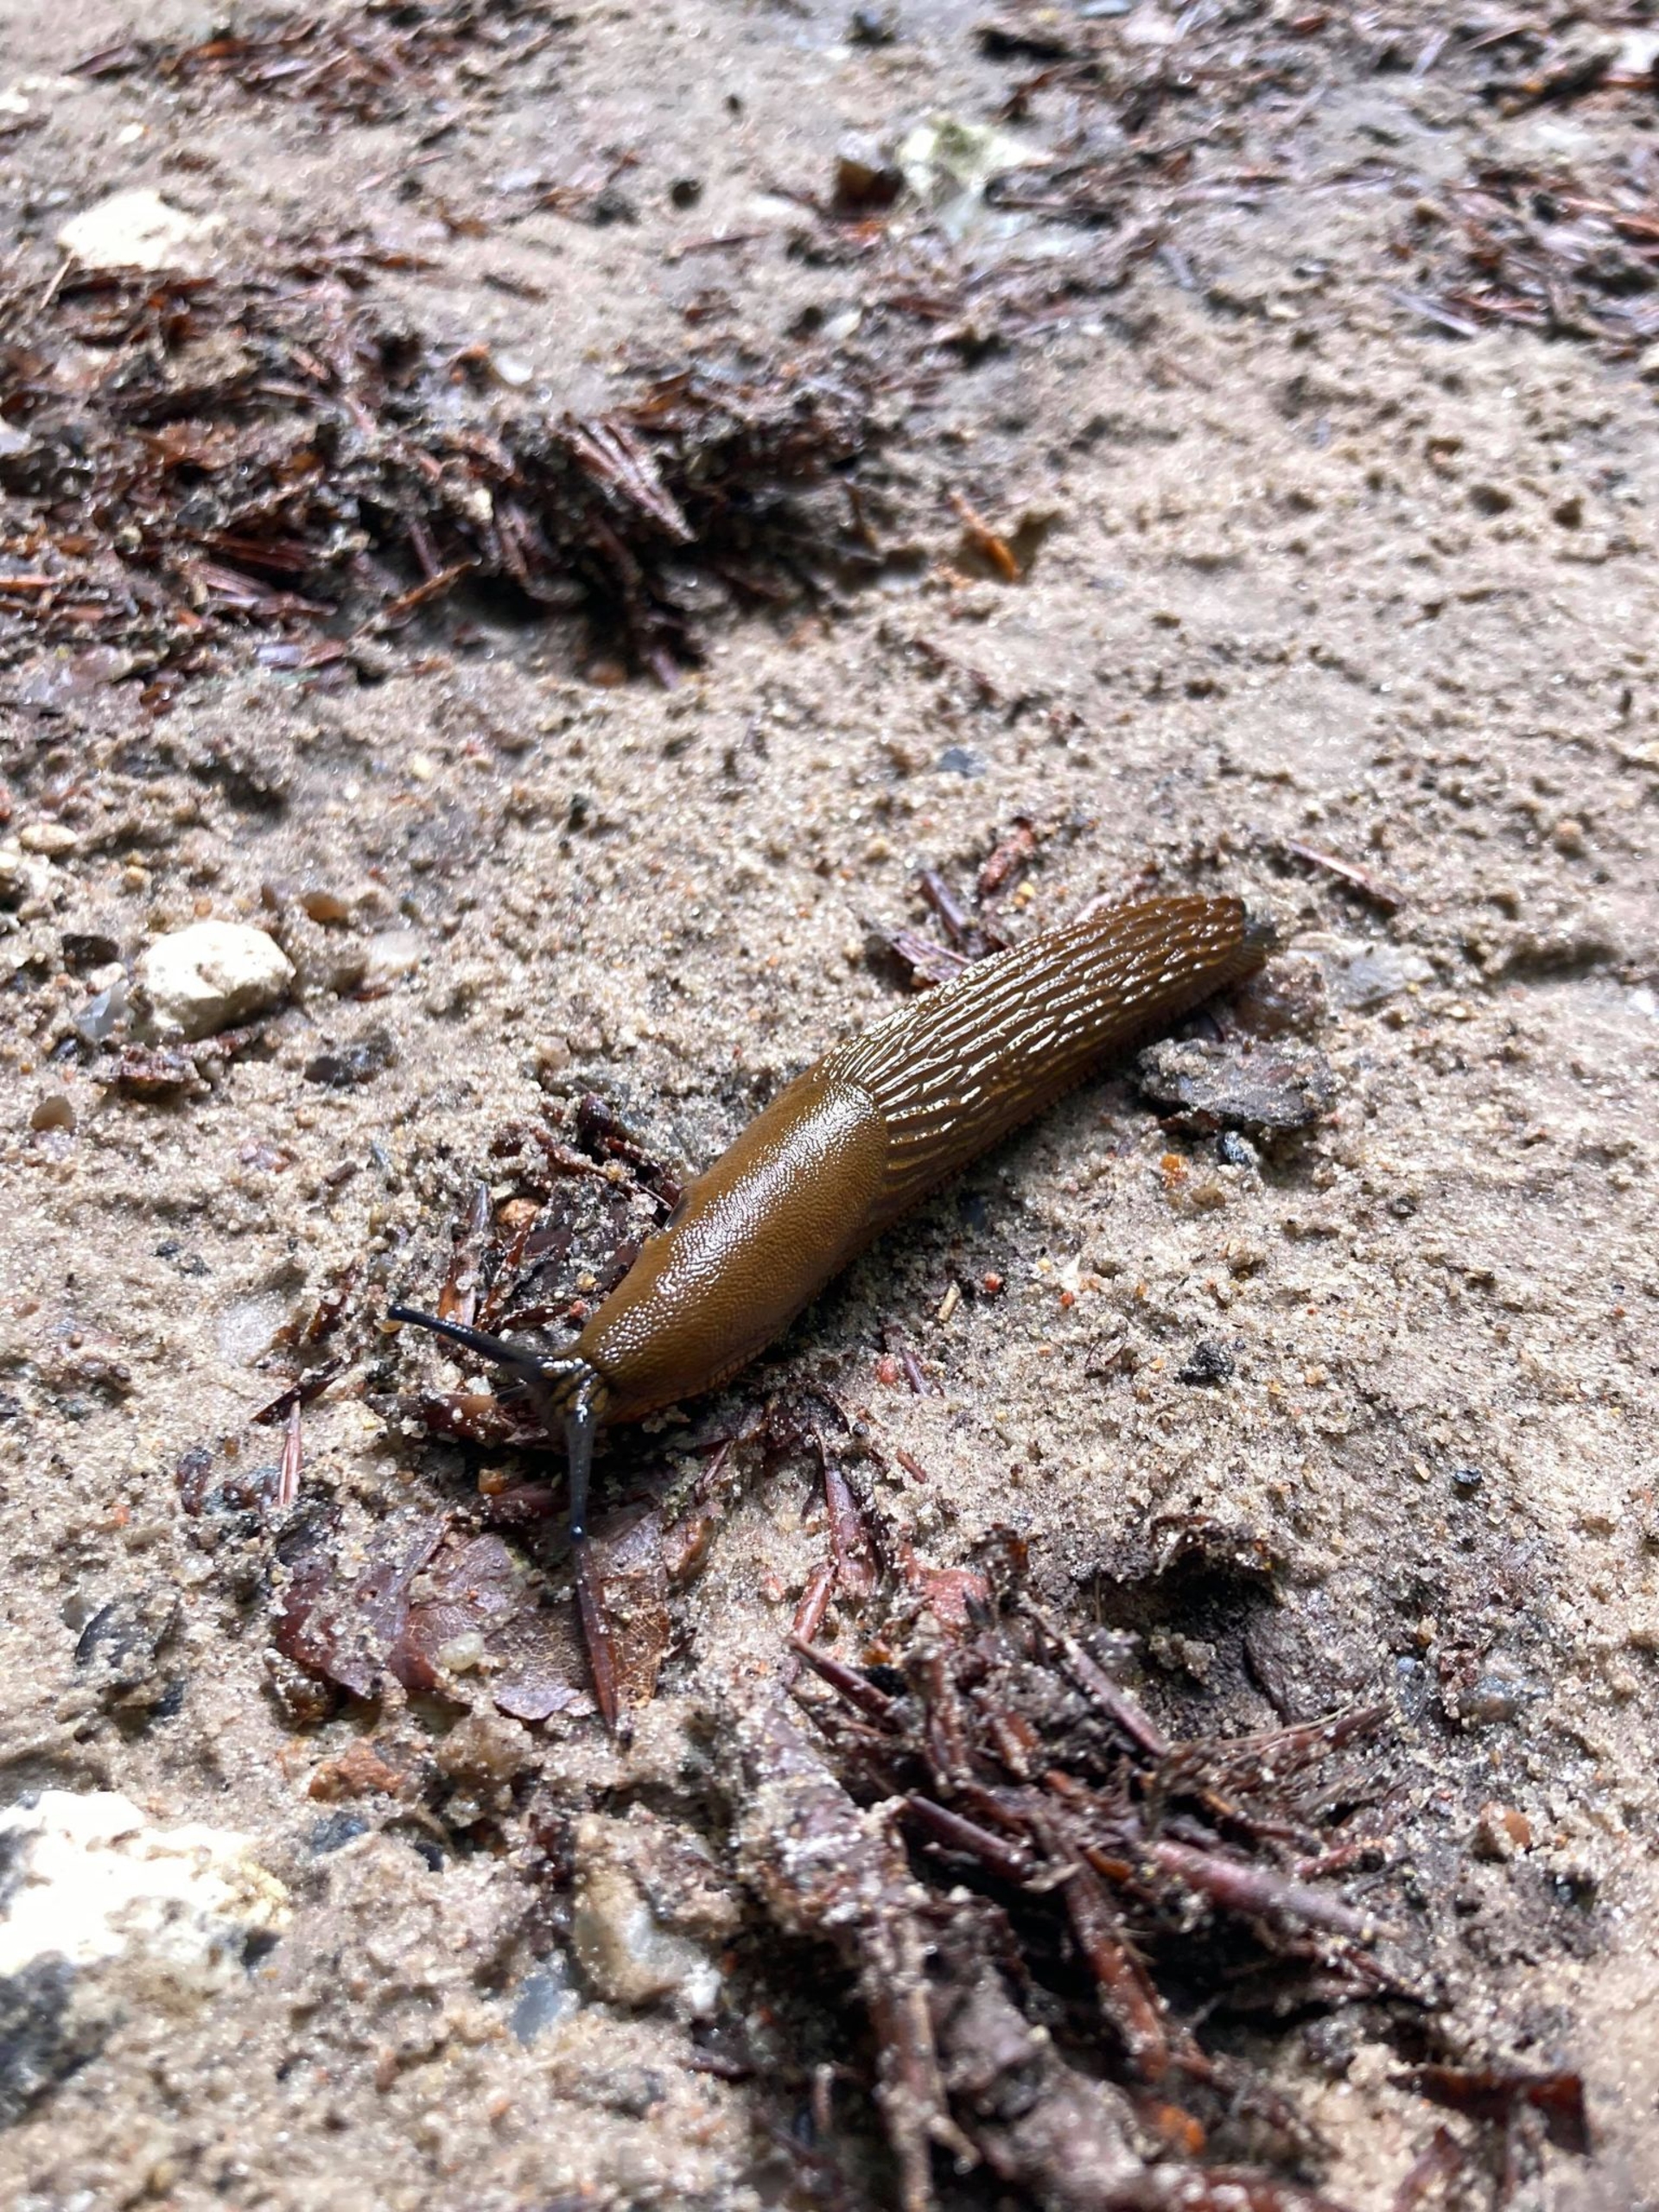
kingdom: Animalia
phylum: Mollusca
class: Gastropoda
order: Stylommatophora
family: Arionidae
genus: Arion
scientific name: Arion vulgaris
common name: Iberisk skovsnegl
